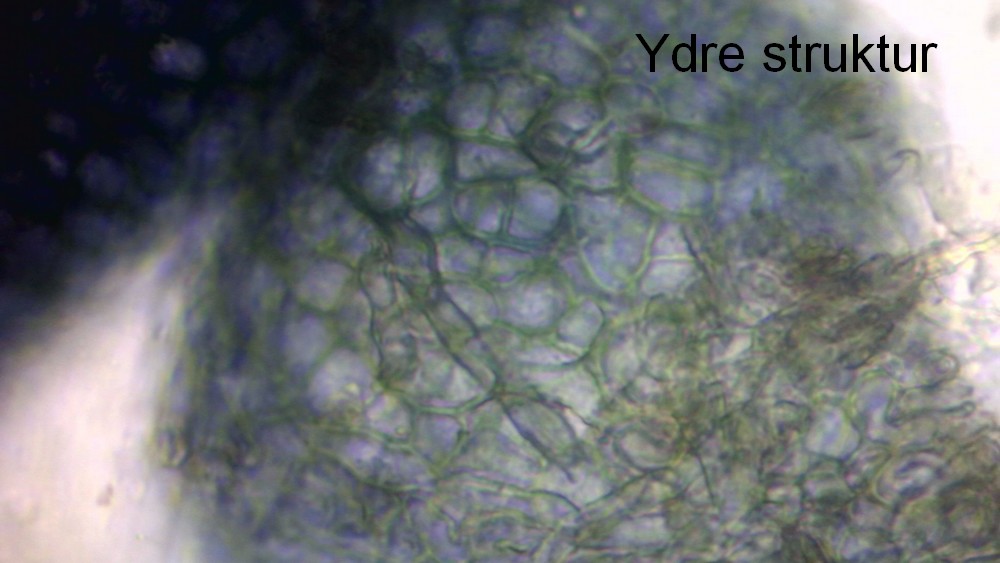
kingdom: Fungi
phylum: Ascomycota
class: Sordariomycetes
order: Hypocreales
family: Nectriaceae
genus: Cyanonectria
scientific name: Cyanonectria buxi
